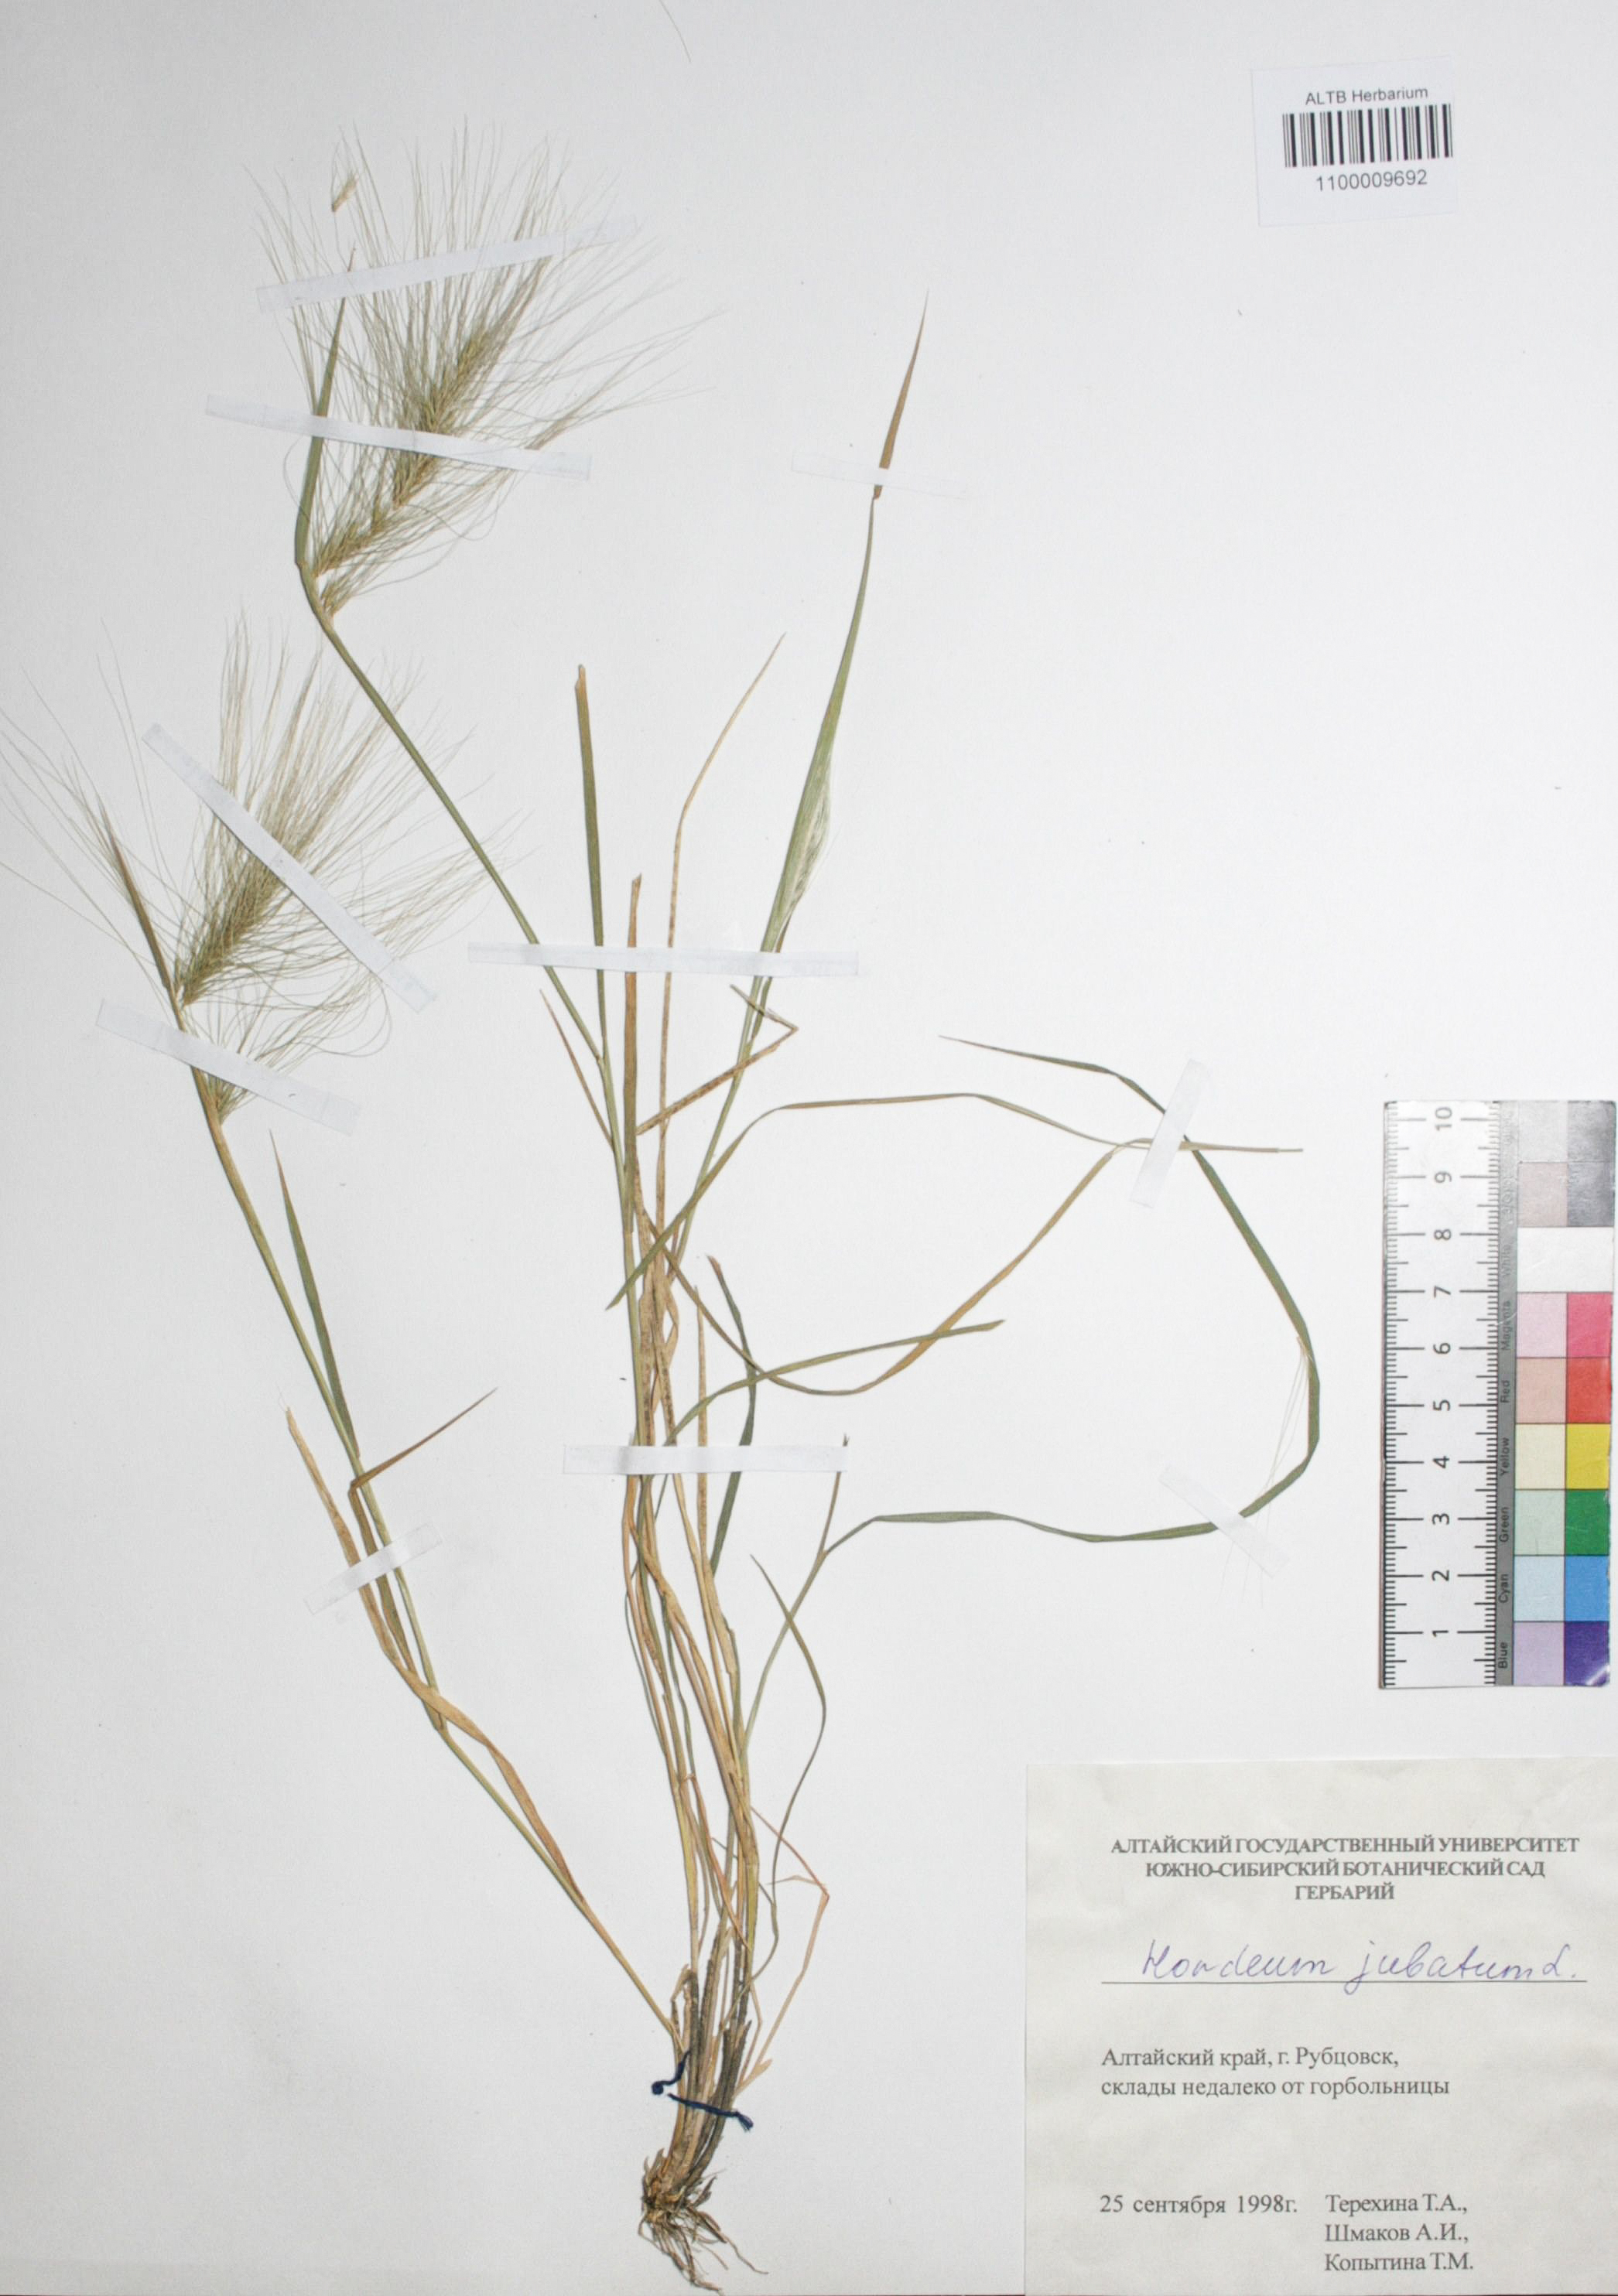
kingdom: Plantae
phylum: Tracheophyta
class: Liliopsida
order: Poales
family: Poaceae
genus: Hordeum
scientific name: Hordeum jubatum
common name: Foxtail barley
